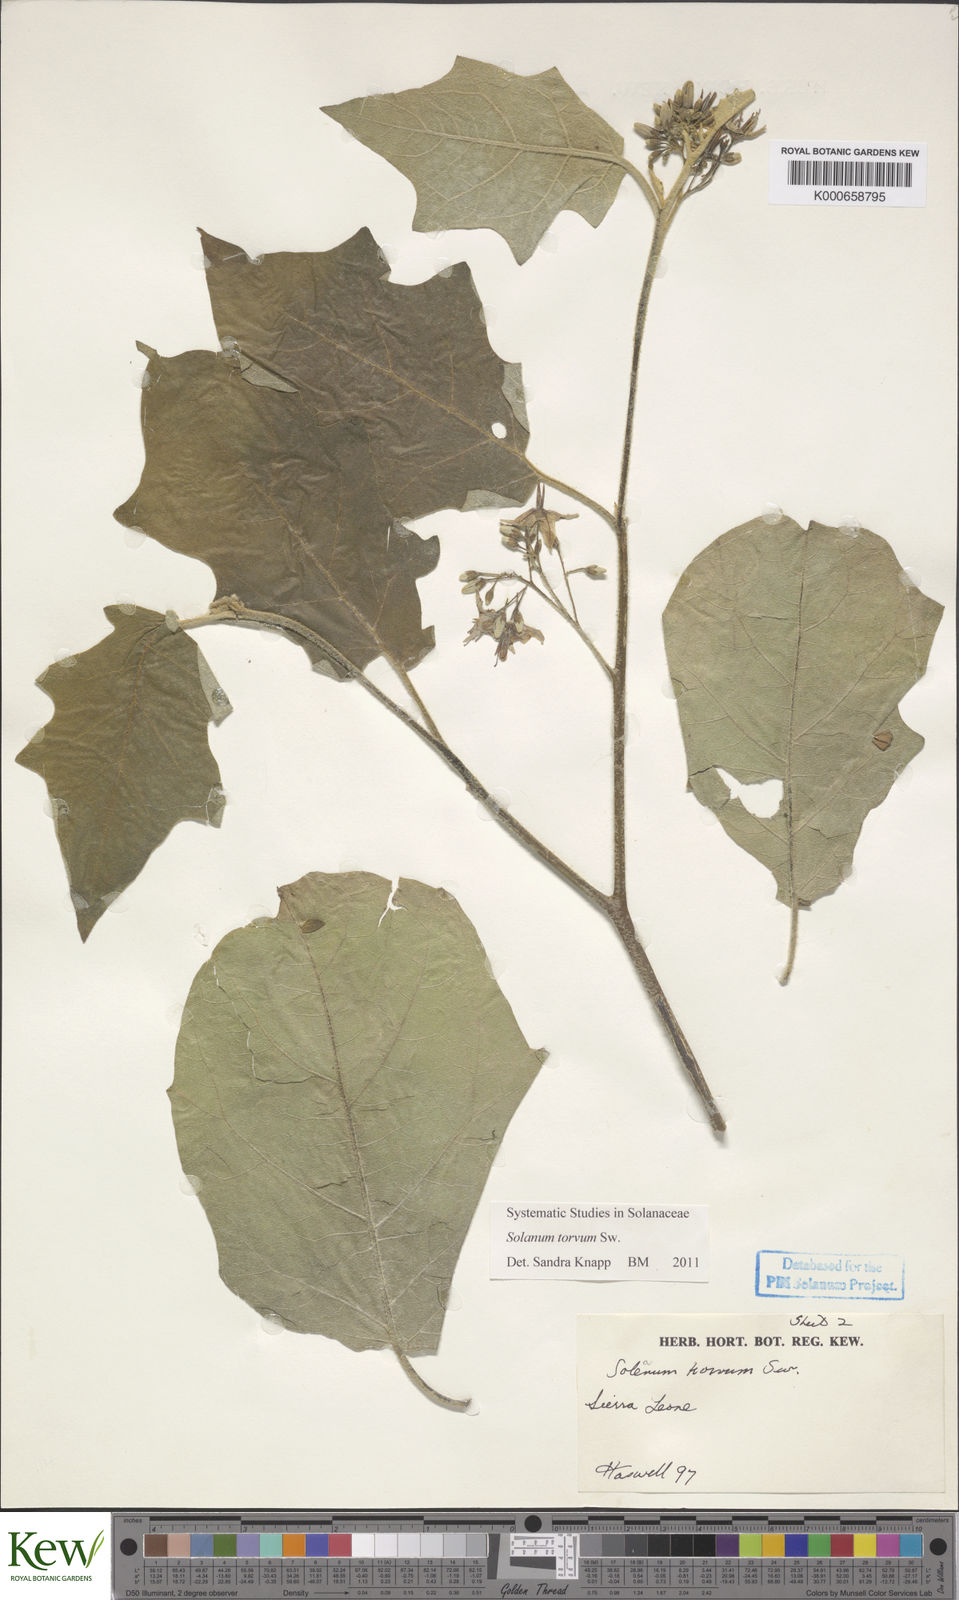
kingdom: Plantae
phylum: Tracheophyta
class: Magnoliopsida
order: Solanales
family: Solanaceae
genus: Solanum
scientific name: Solanum torvum
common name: Turkey berry
